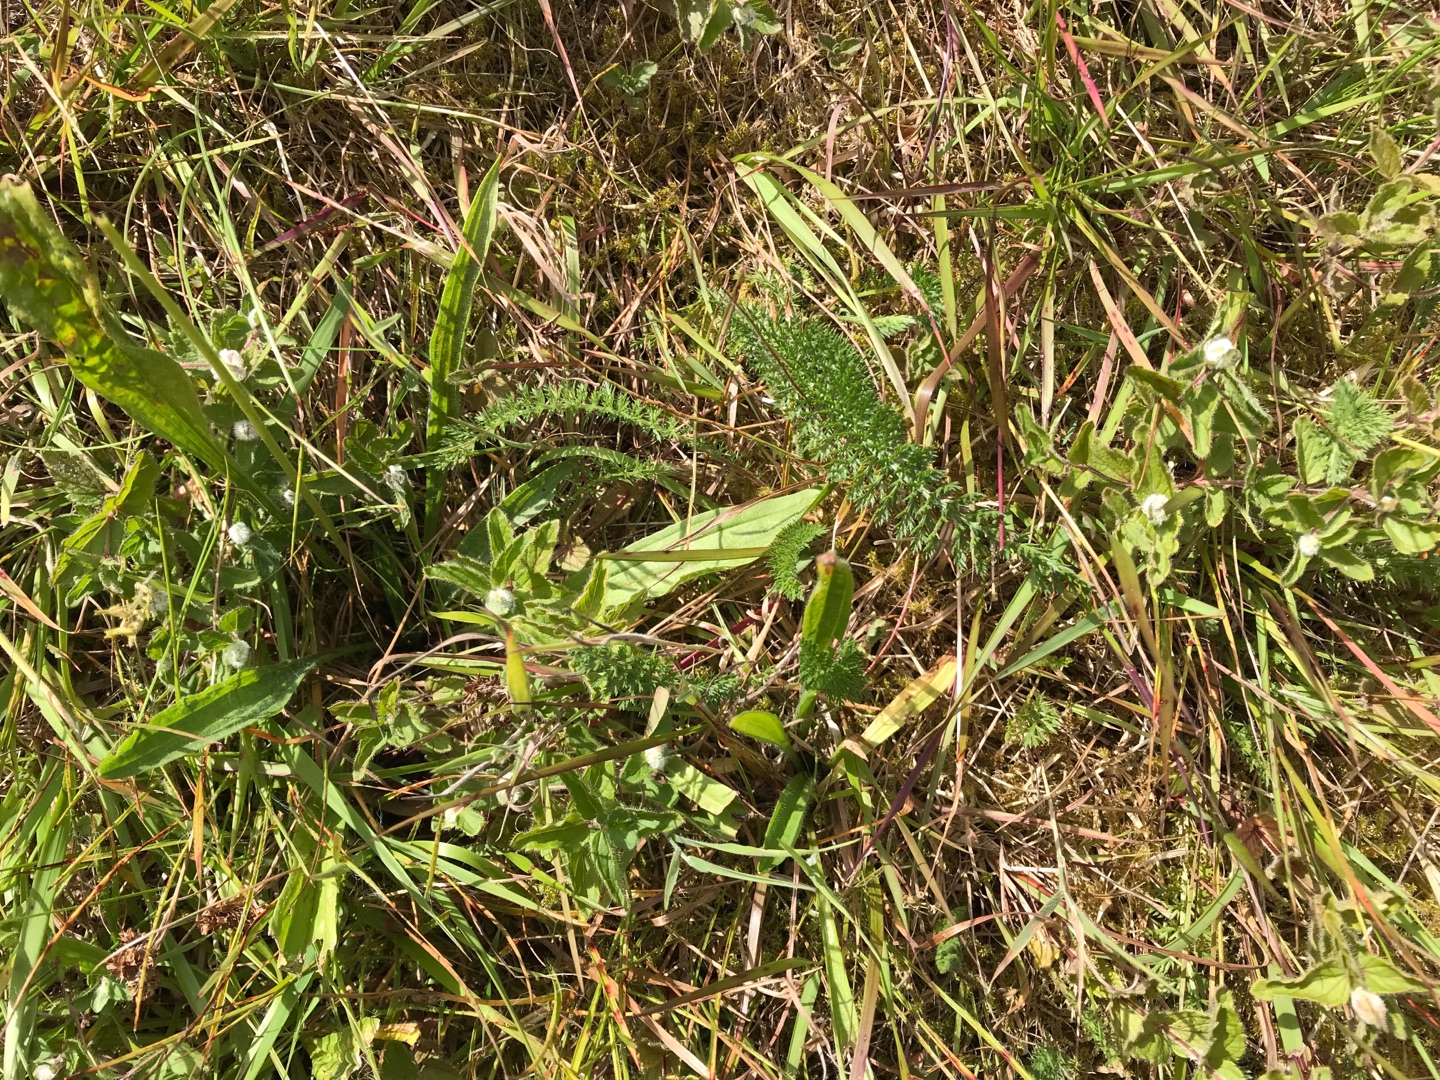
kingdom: Animalia
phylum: Arthropoda
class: Insecta
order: Diptera
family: Cecidomyiidae
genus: Jaapiella
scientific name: Jaapiella veronicae
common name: Ærenprisgalmyg
